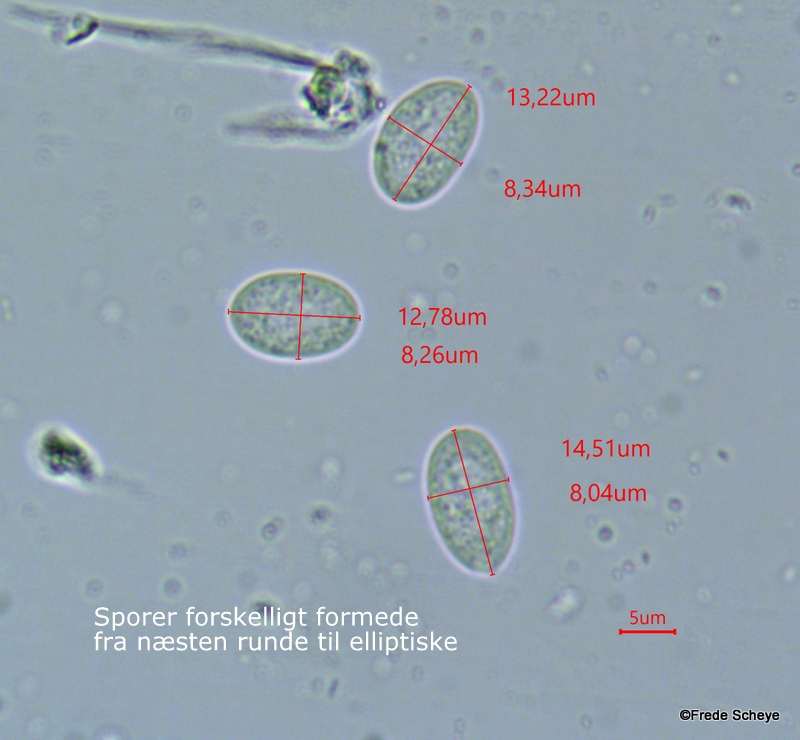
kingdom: Protozoa
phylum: Mycetozoa
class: Protosteliomycetes
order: Ceratiomyxales
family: Ceratiomyxaceae
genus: Ceratiomyxa
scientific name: Ceratiomyxa fruticulosa
